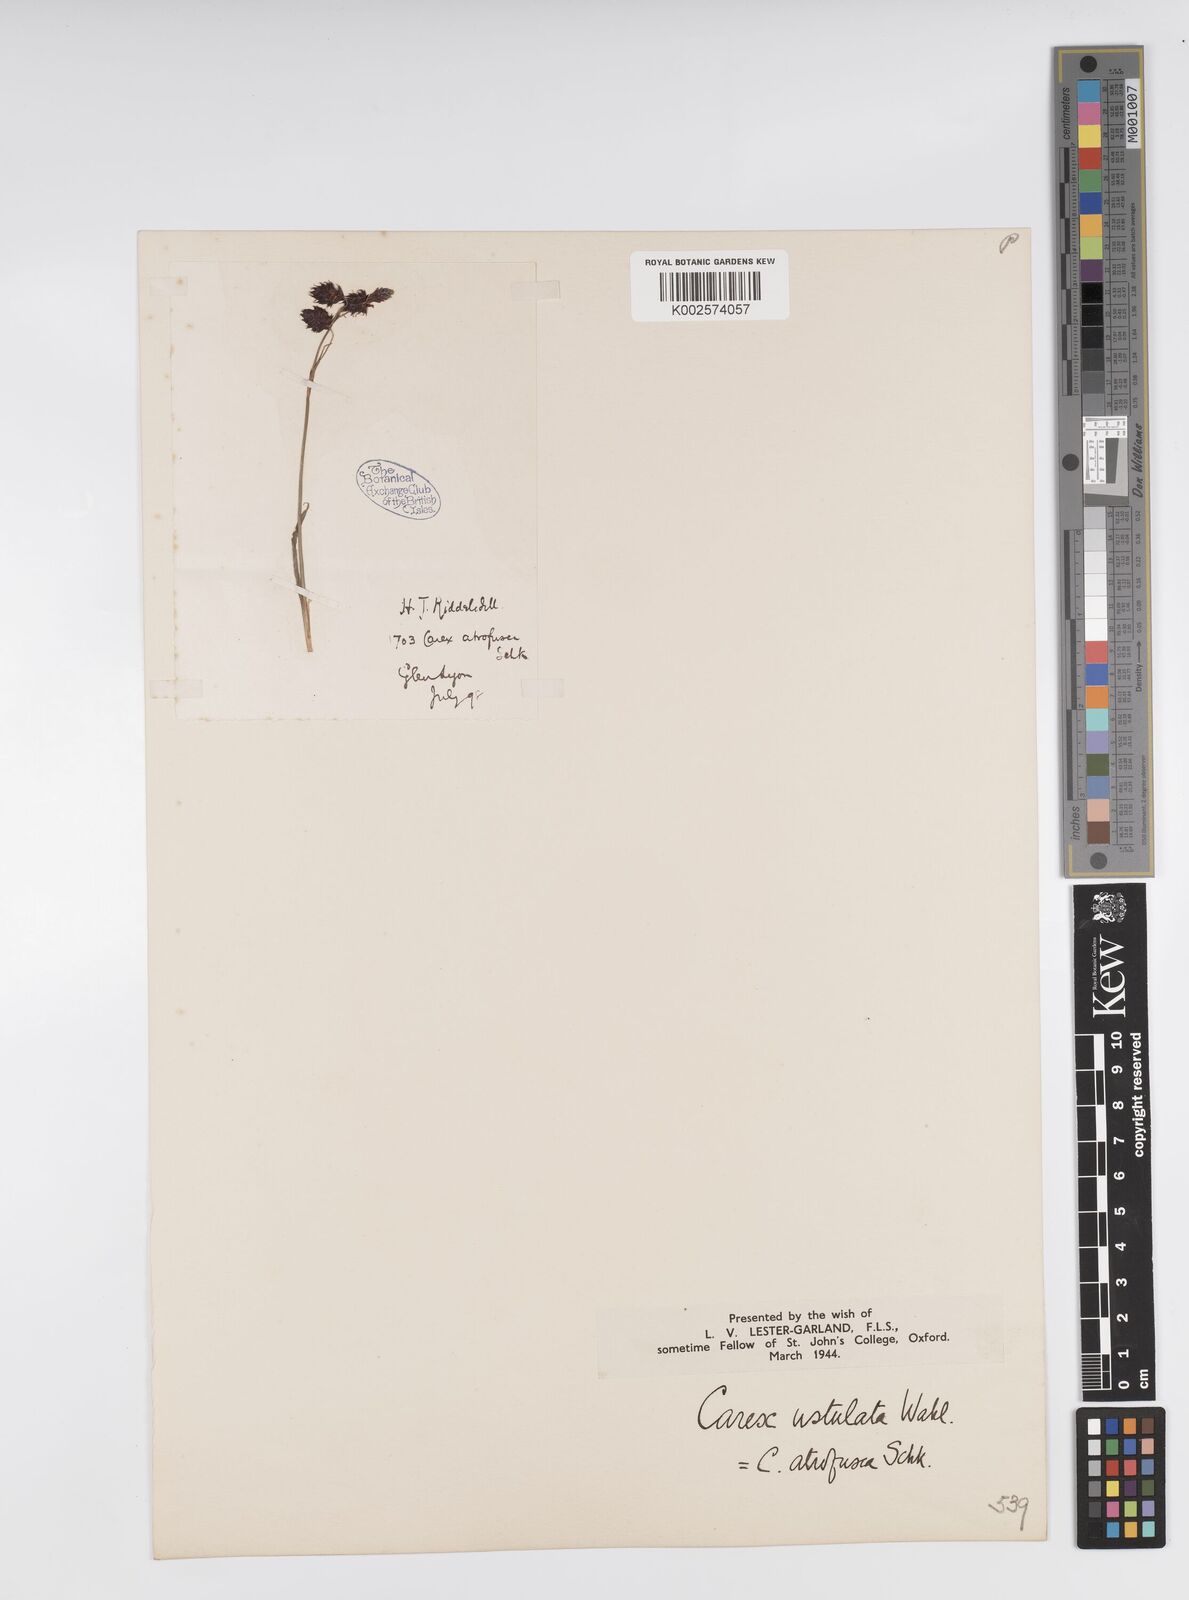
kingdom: Plantae
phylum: Tracheophyta
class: Liliopsida
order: Poales
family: Cyperaceae
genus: Carex
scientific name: Carex atrofusca
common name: Scorched alpine-sedge
